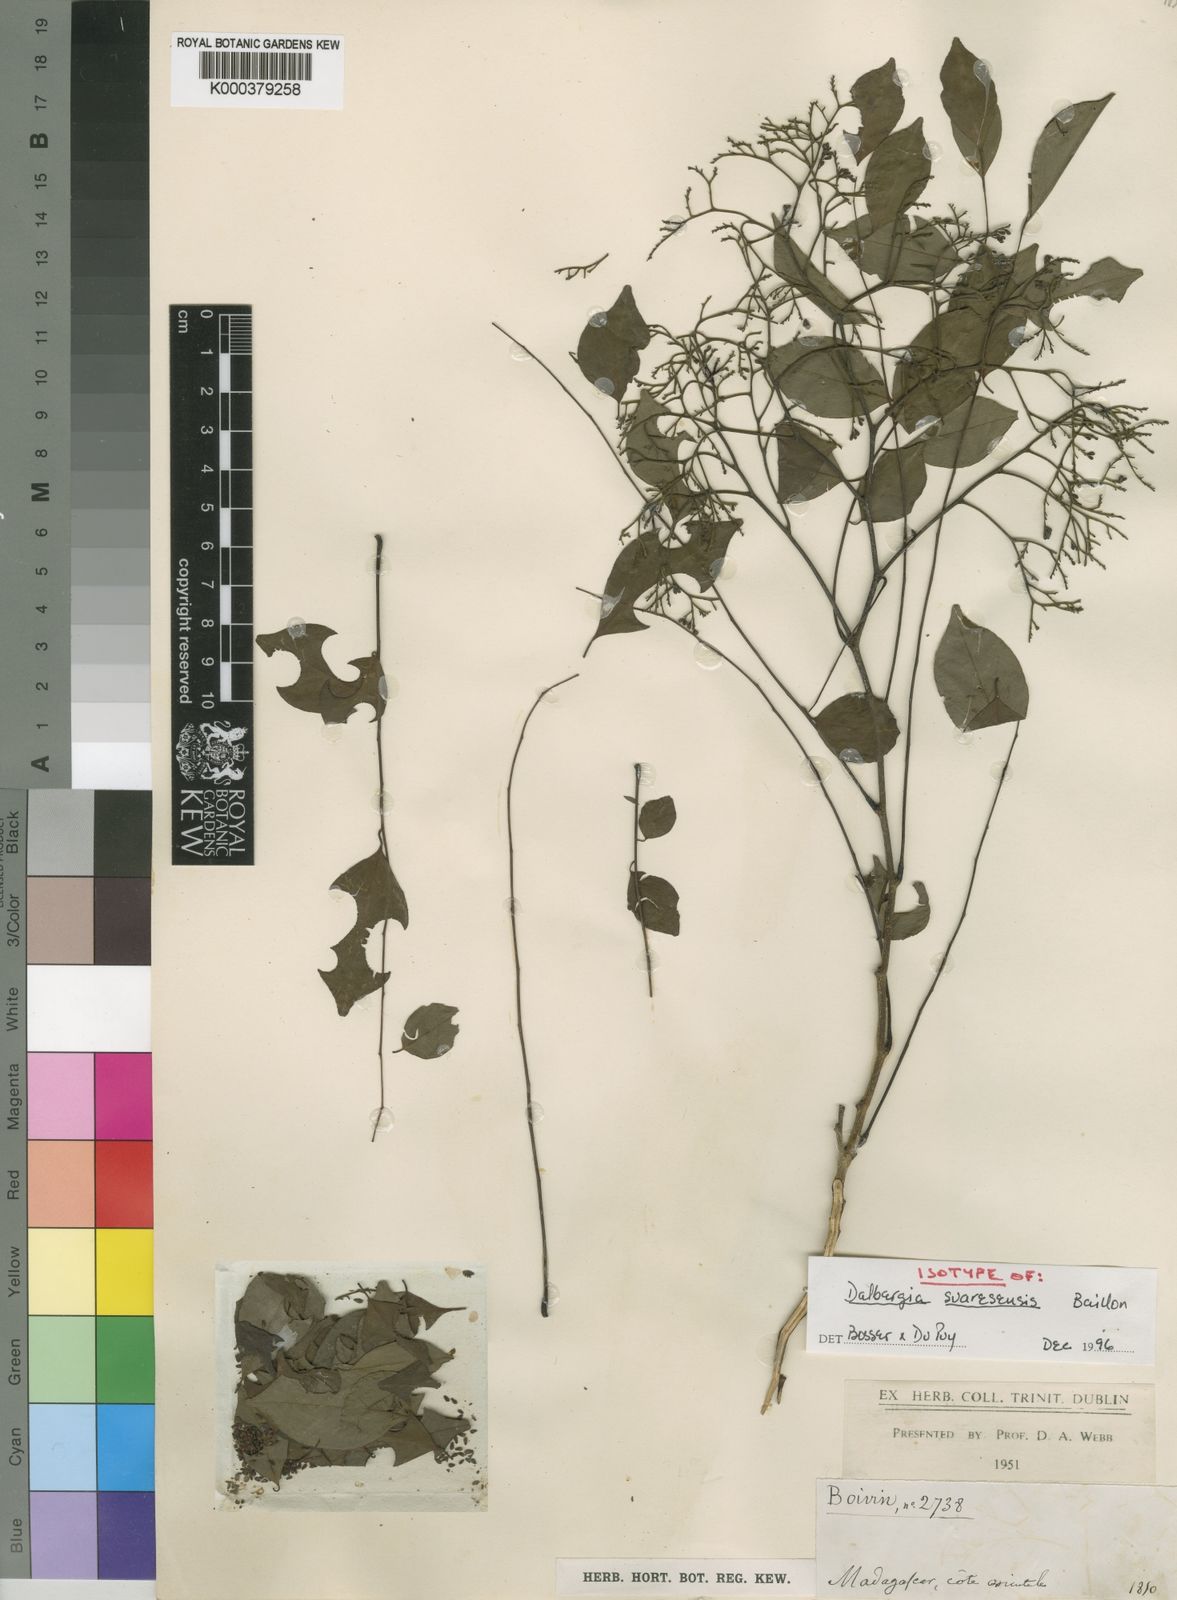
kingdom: Plantae
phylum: Tracheophyta
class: Magnoliopsida
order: Fabales
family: Fabaceae
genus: Dalbergia
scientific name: Dalbergia suaresensis
